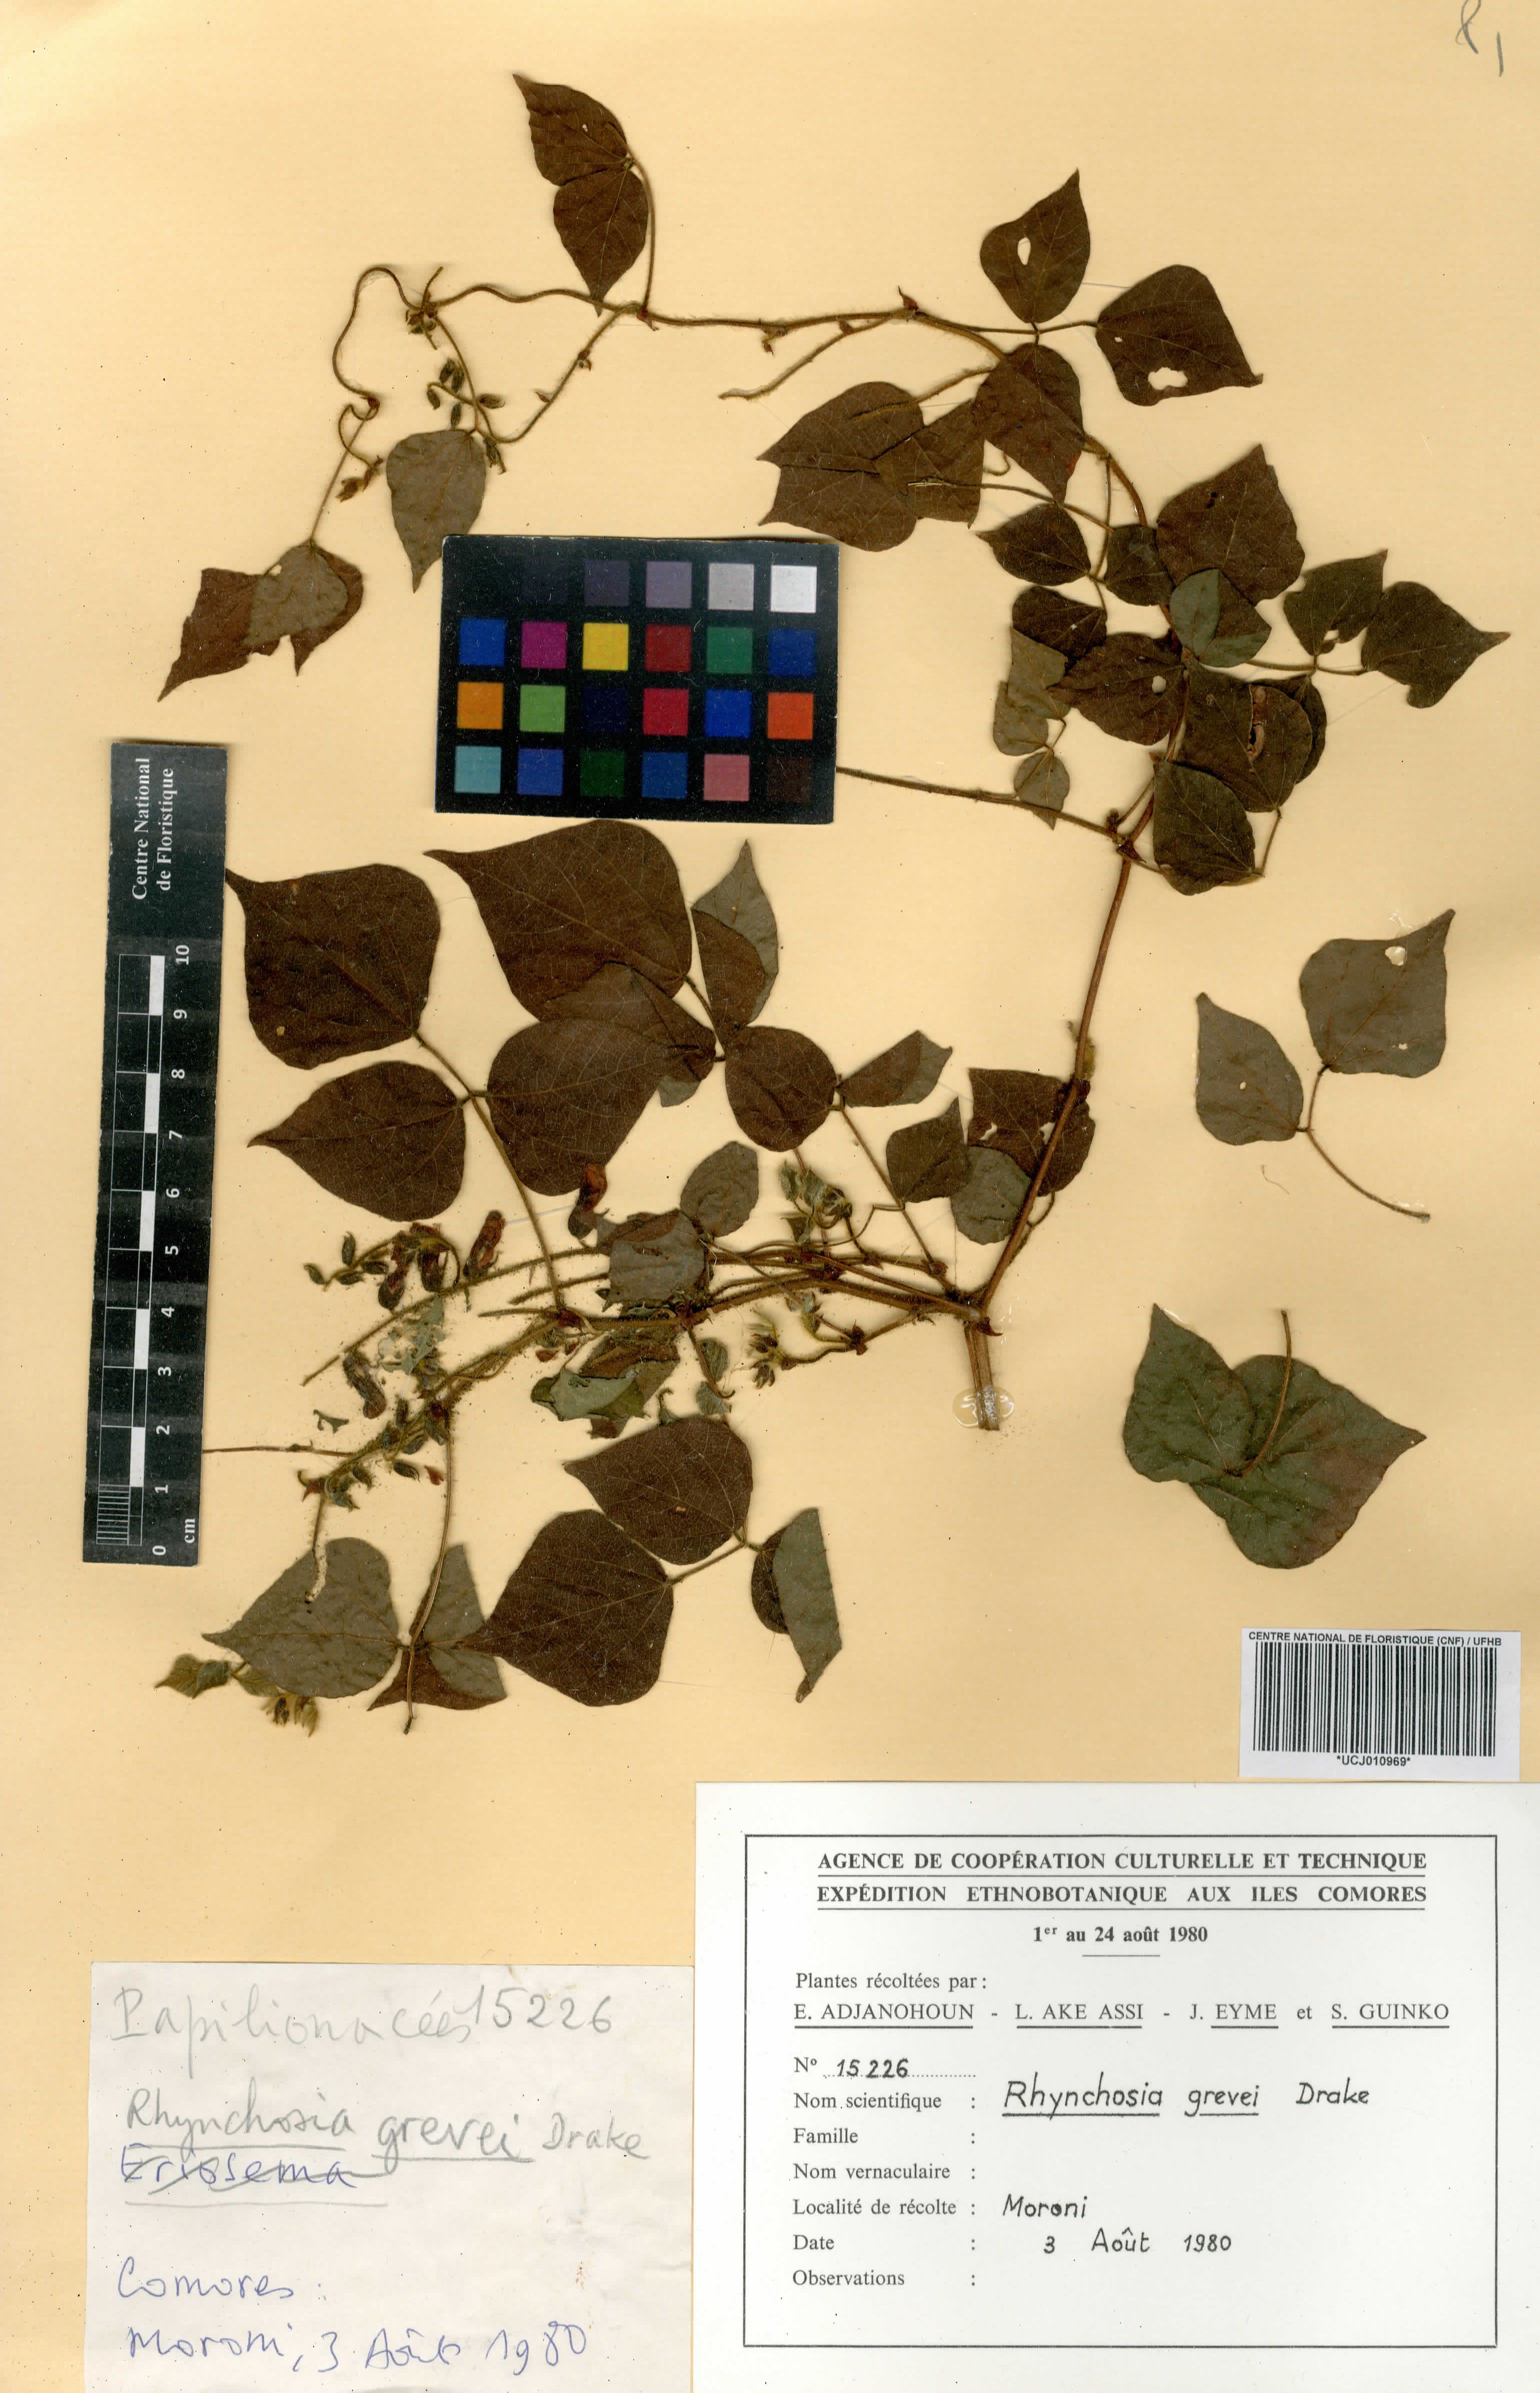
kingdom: Plantae
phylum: Tracheophyta
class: Magnoliopsida
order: Fabales
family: Fabaceae
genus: Rhynchosia
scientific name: Rhynchosia viscosa
